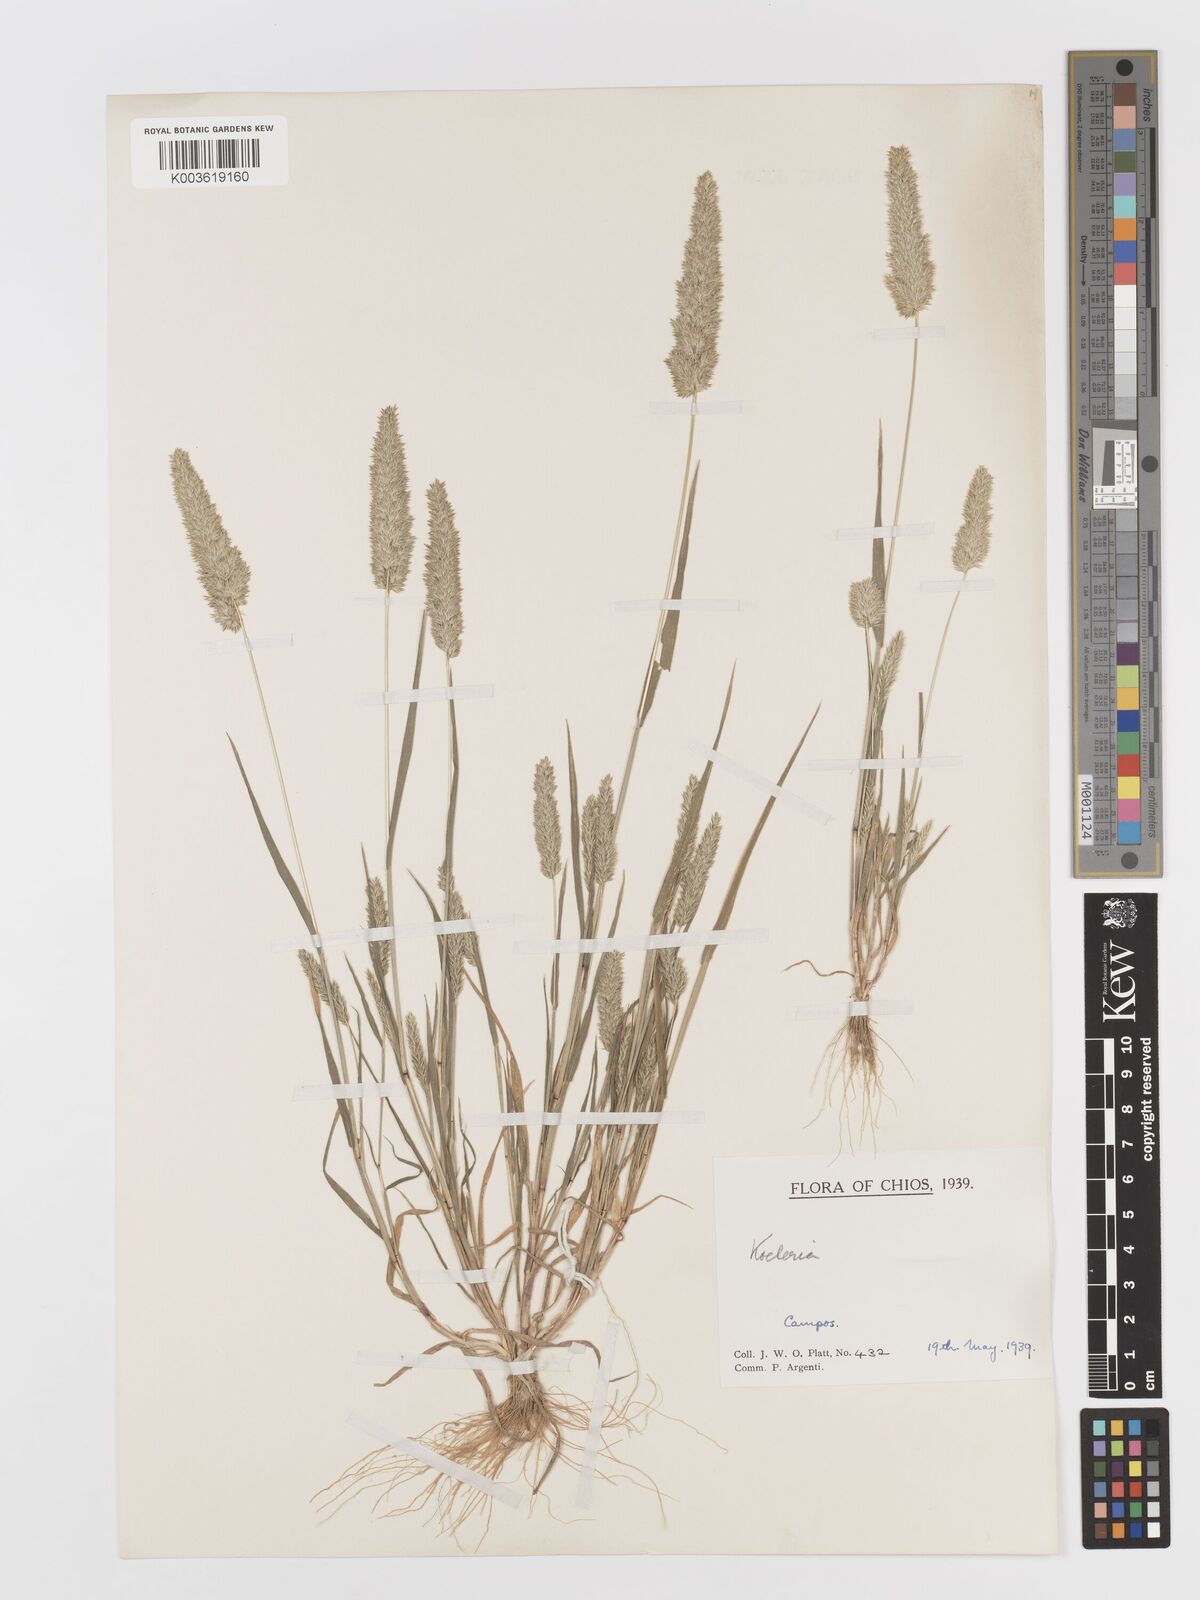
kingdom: Plantae
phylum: Tracheophyta
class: Liliopsida
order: Poales
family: Poaceae
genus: Rostraria
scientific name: Rostraria
